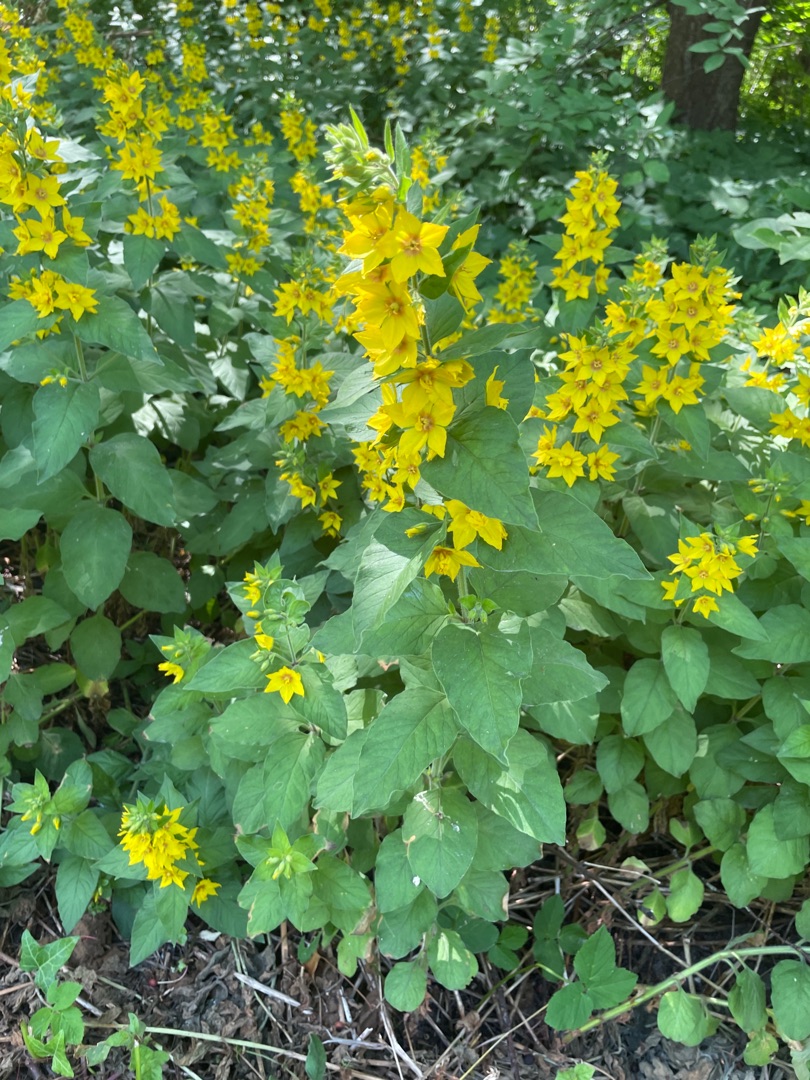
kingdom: Plantae
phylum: Tracheophyta
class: Magnoliopsida
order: Ericales
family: Primulaceae
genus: Lysimachia
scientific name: Lysimachia punctata
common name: Prikbladet fredløs
